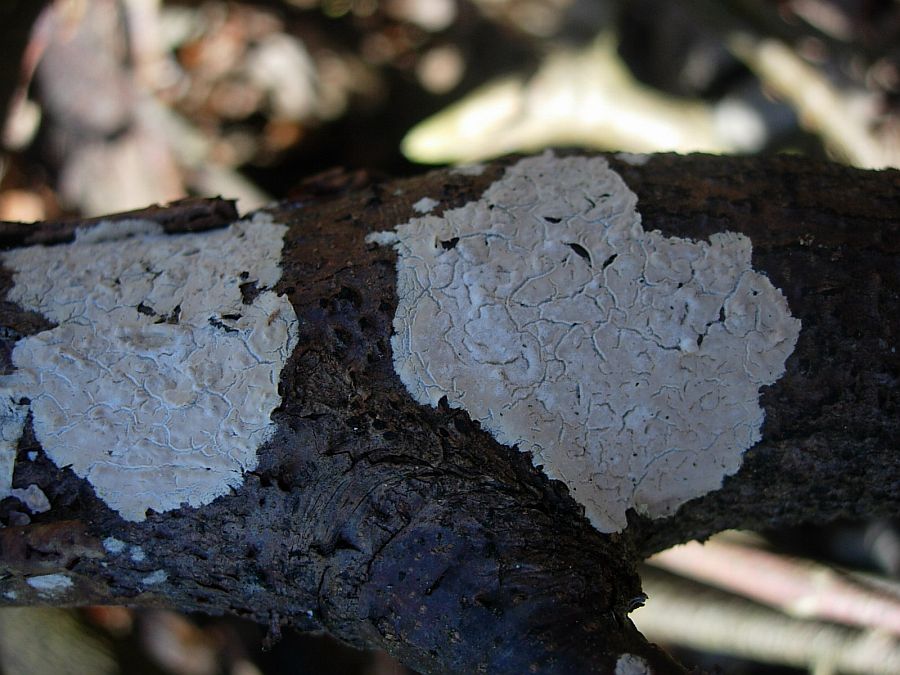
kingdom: Fungi
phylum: Basidiomycota
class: Agaricomycetes
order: Agaricales
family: Physalacriaceae
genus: Cylindrobasidium
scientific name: Cylindrobasidium evolvens
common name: sprækkehinde
